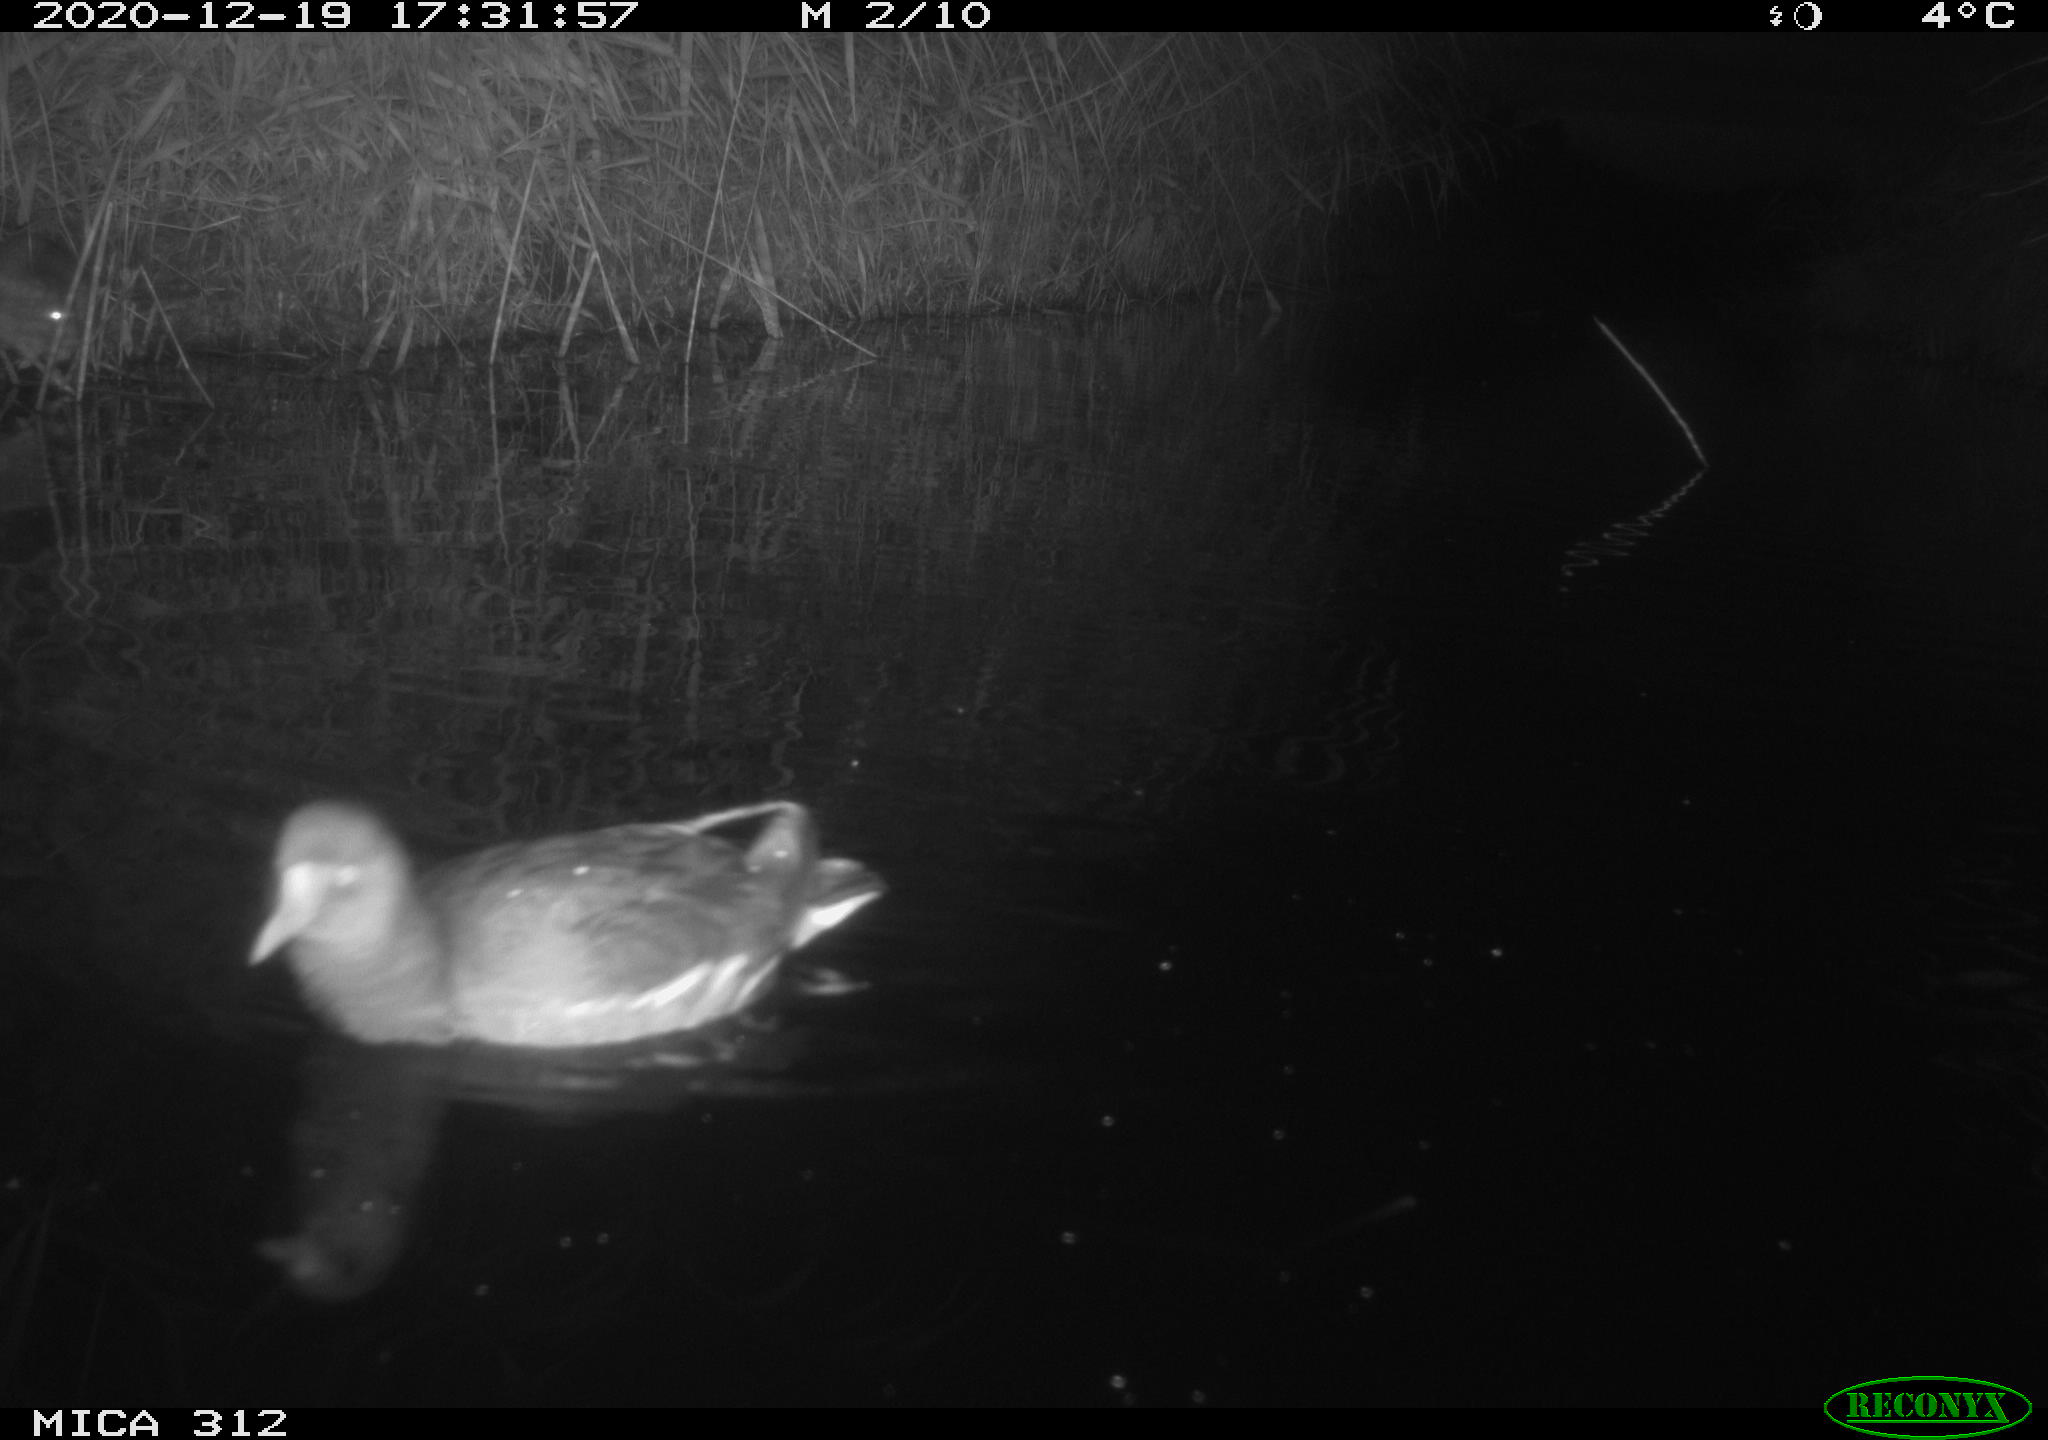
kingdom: Animalia
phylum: Chordata
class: Aves
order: Gruiformes
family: Rallidae
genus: Gallinula
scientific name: Gallinula chloropus
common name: Common moorhen
